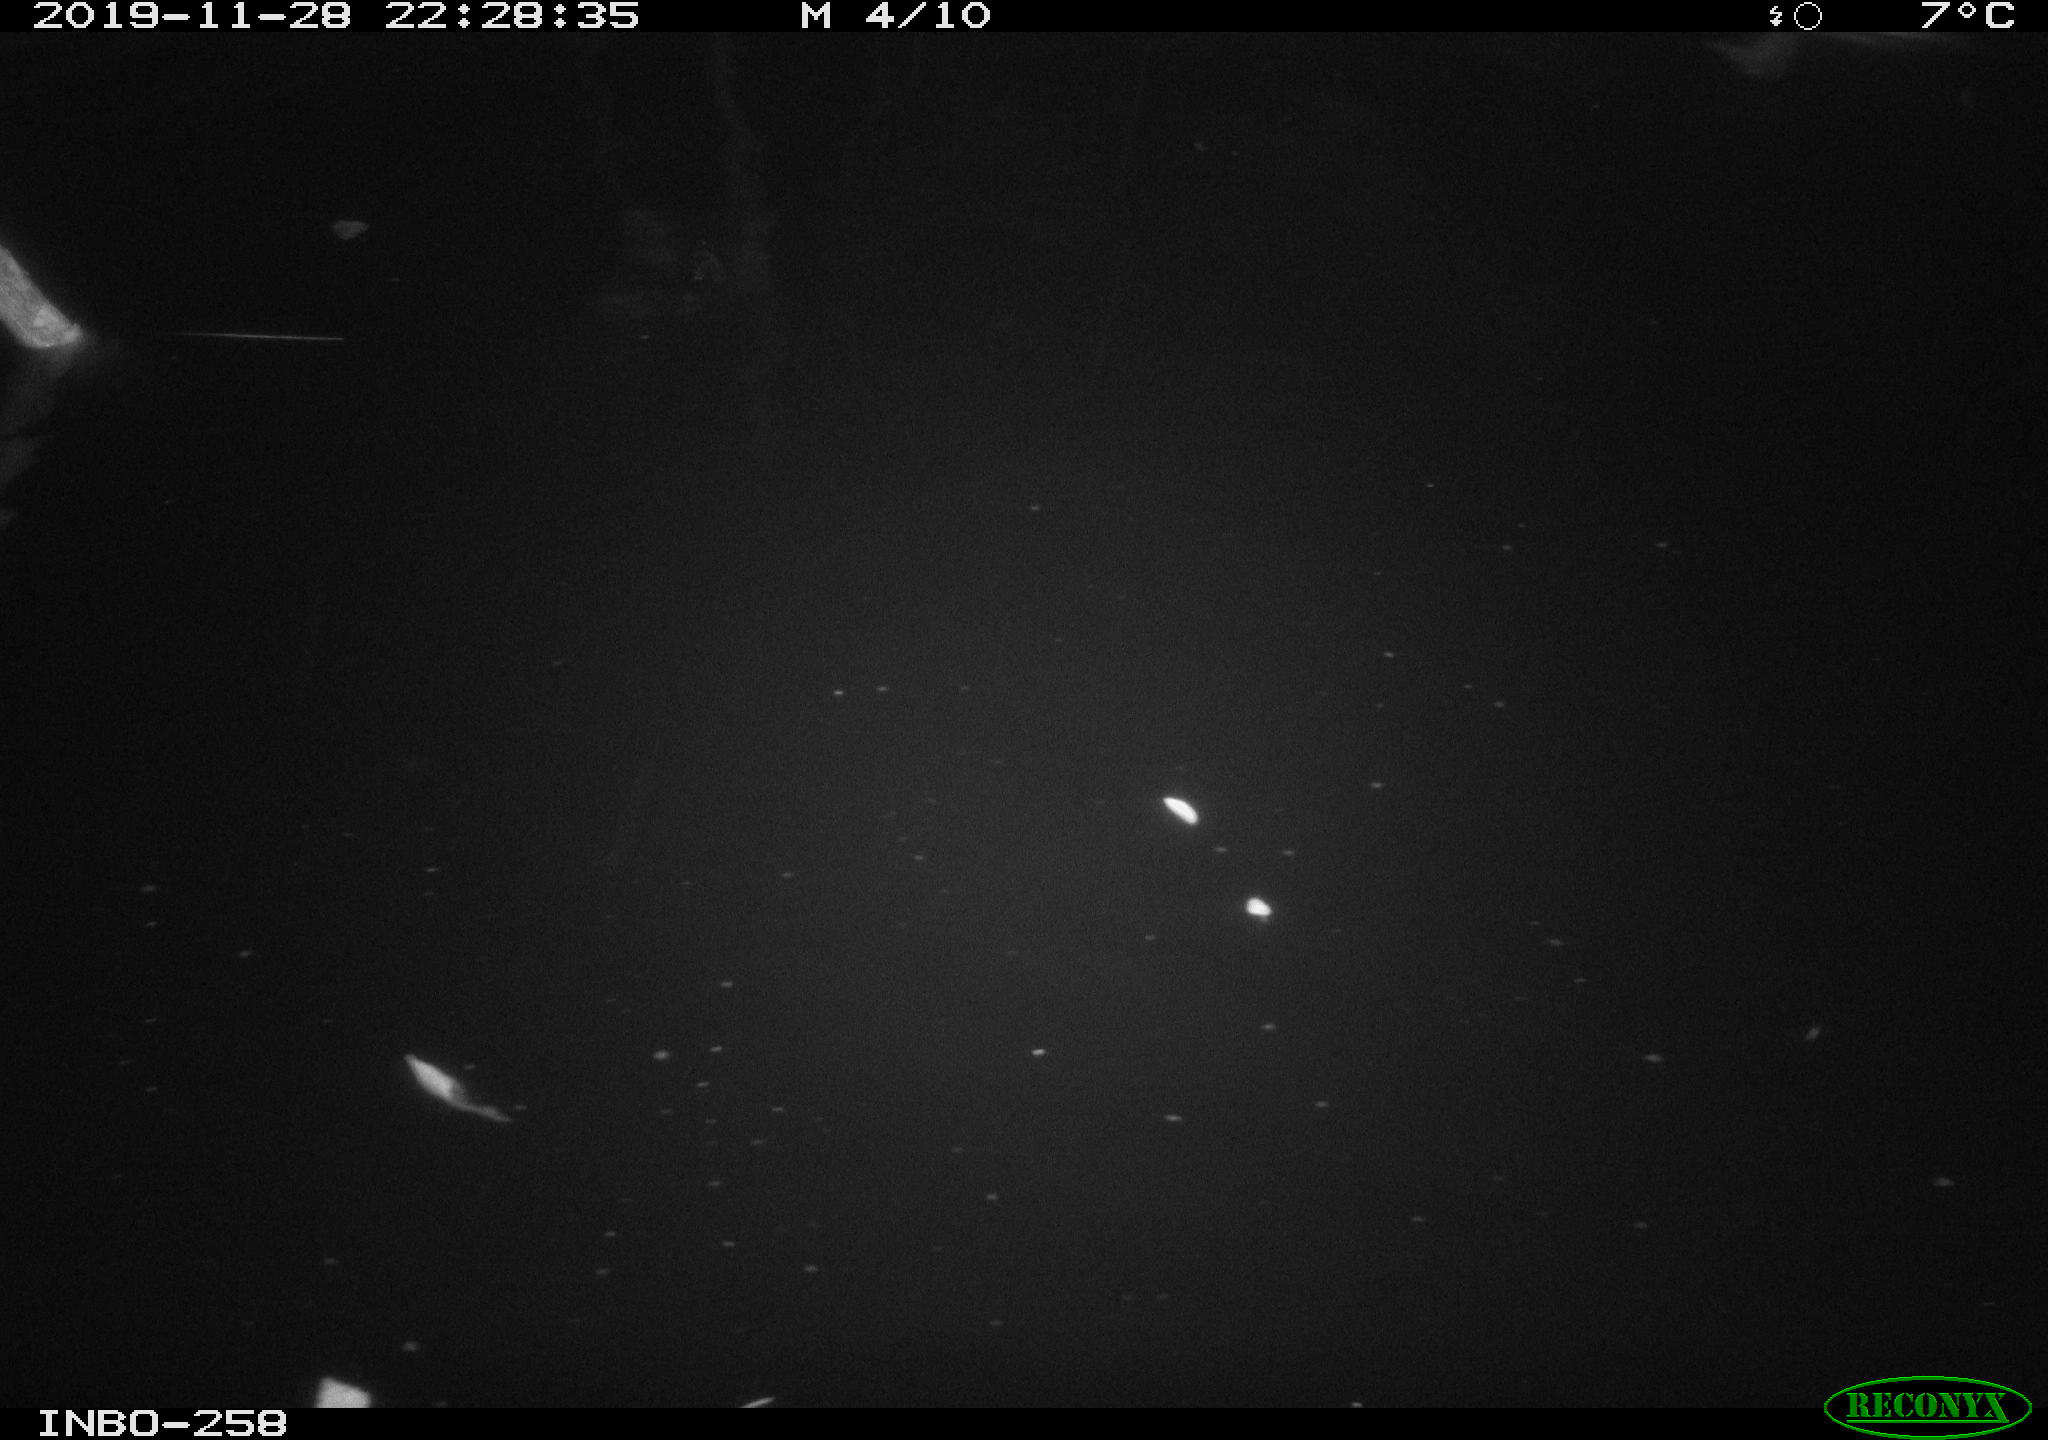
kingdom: Animalia
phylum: Chordata
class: Aves
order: Anseriformes
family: Anatidae
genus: Anas
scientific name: Anas platyrhynchos
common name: Mallard
